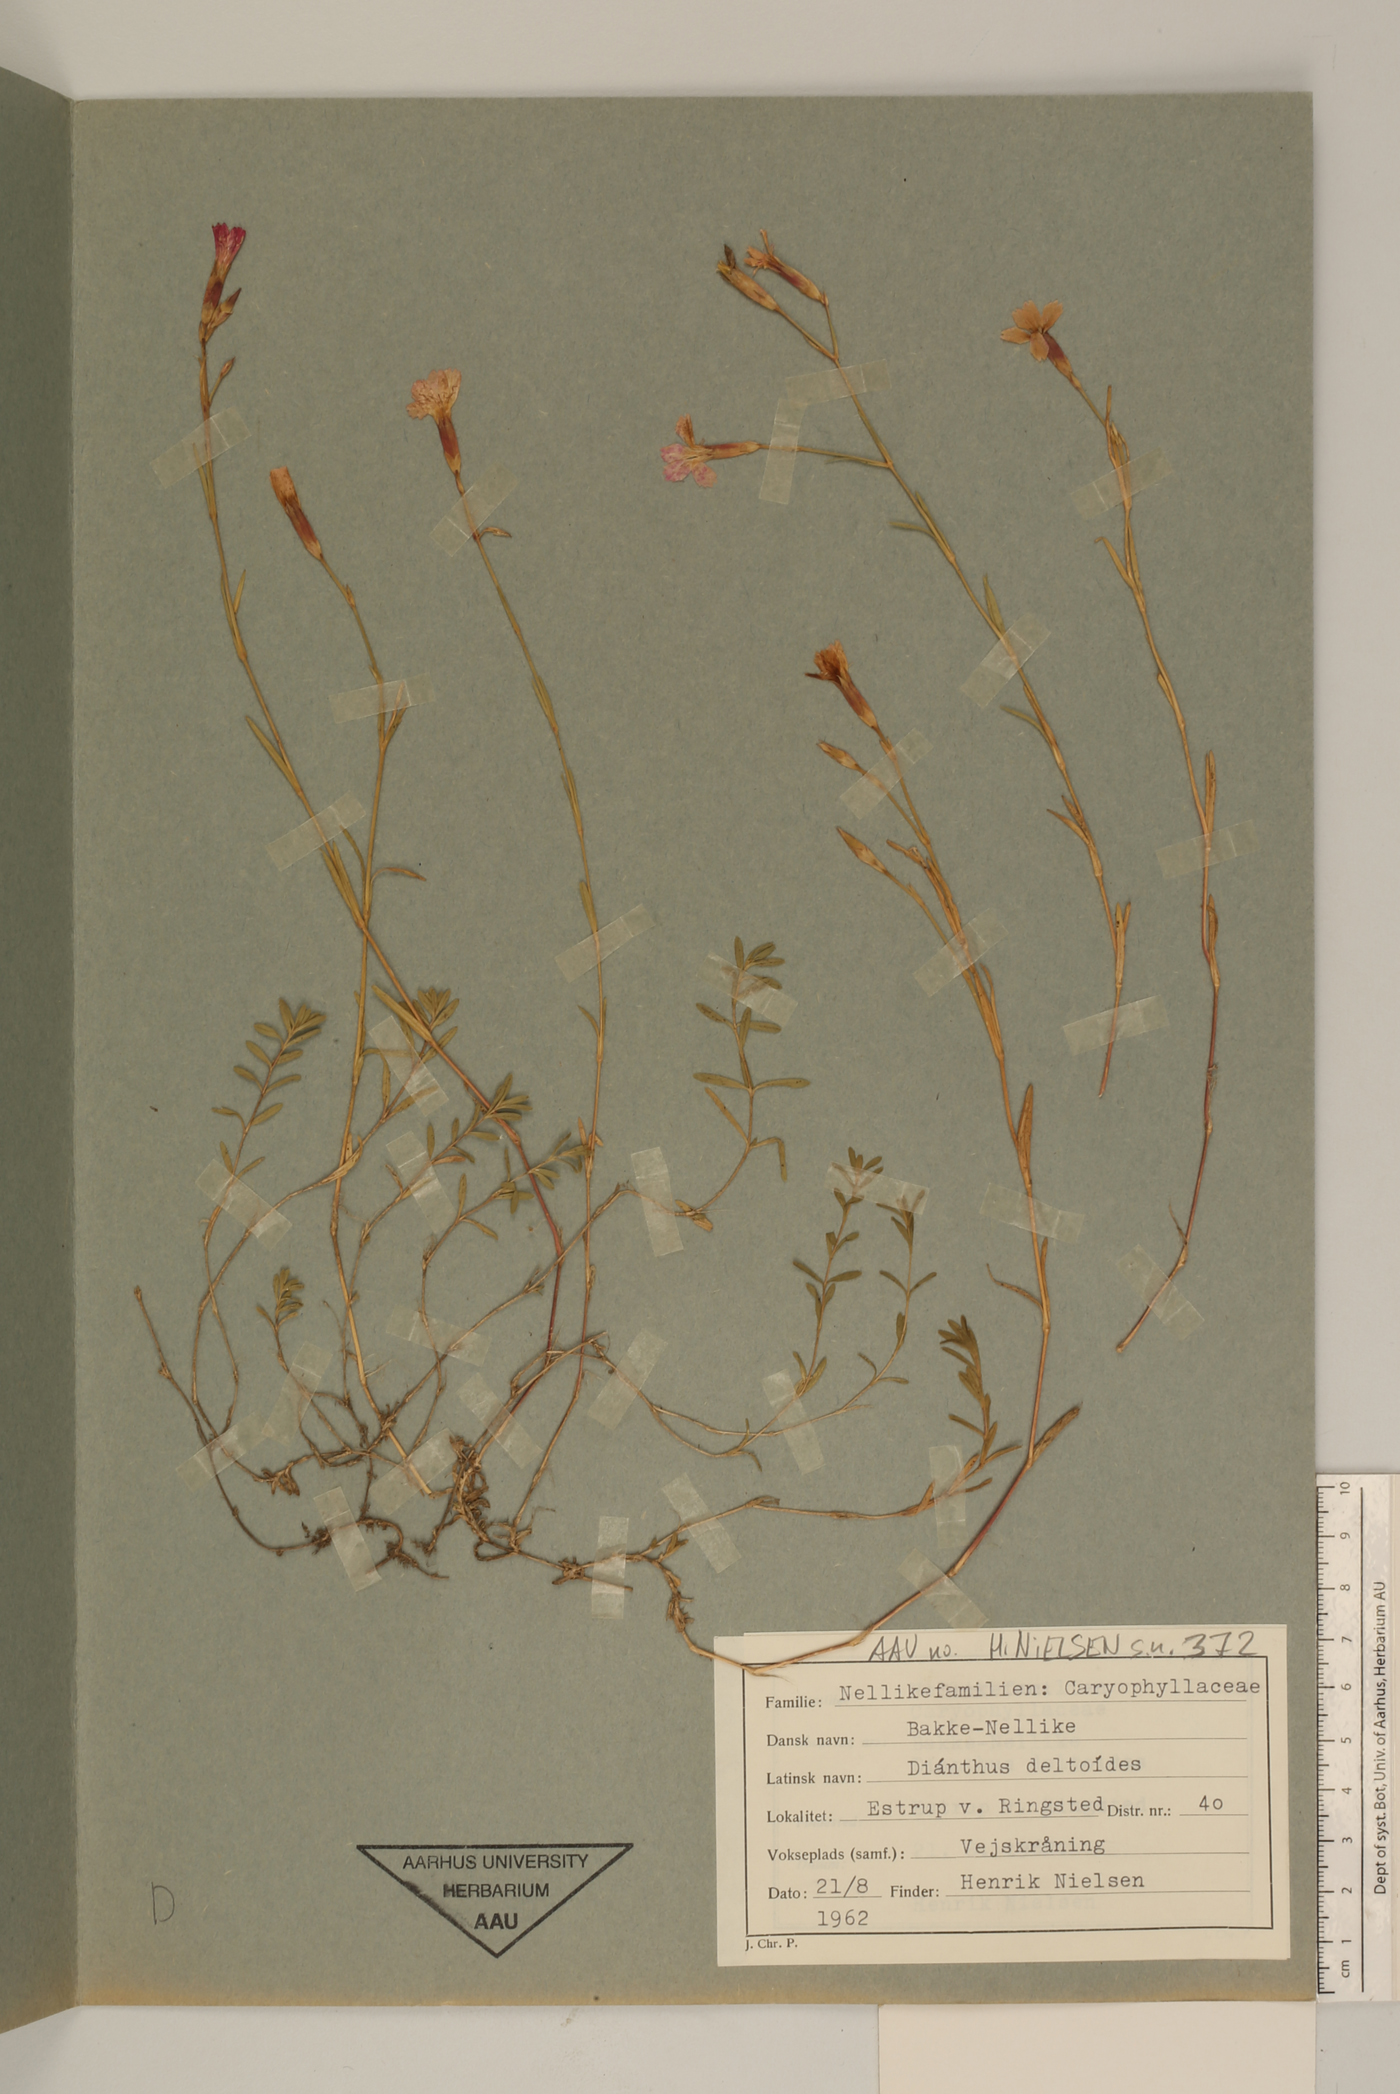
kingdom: Plantae
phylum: Tracheophyta
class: Magnoliopsida
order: Caryophyllales
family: Caryophyllaceae
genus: Dianthus
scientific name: Dianthus deltoides
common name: Maiden pink
